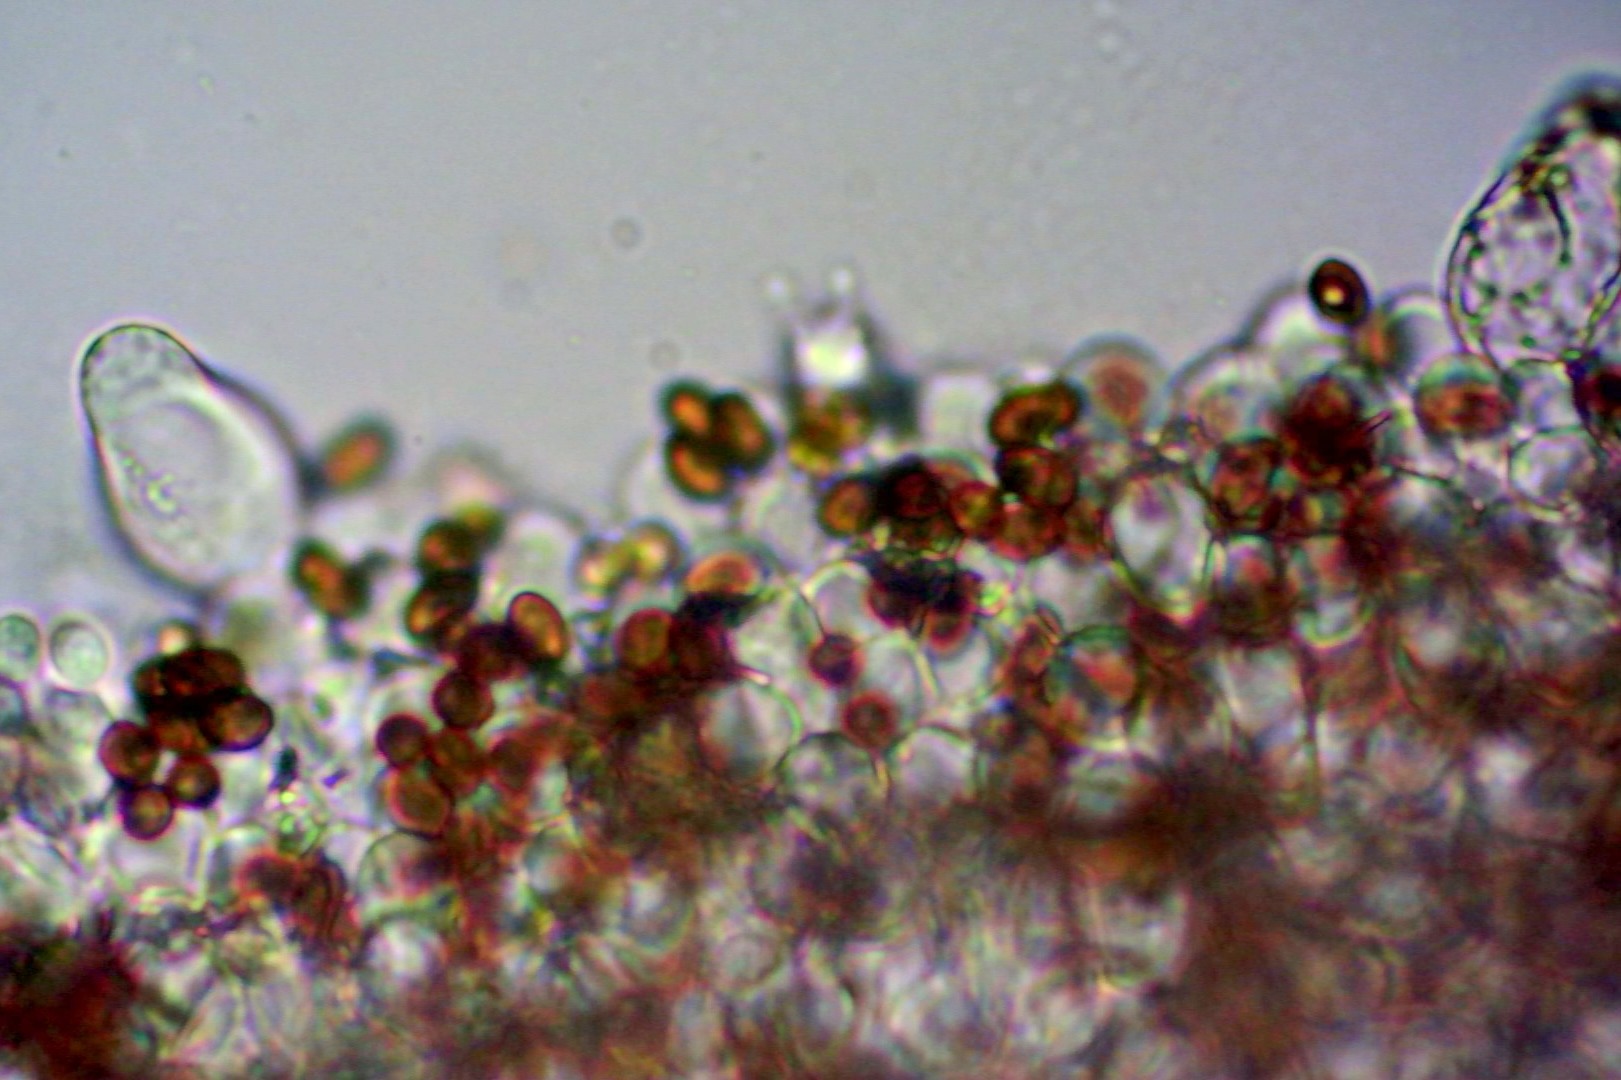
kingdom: Fungi
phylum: Basidiomycota
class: Agaricomycetes
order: Agaricales
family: Psathyrellaceae
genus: Psathyrella
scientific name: Psathyrella
